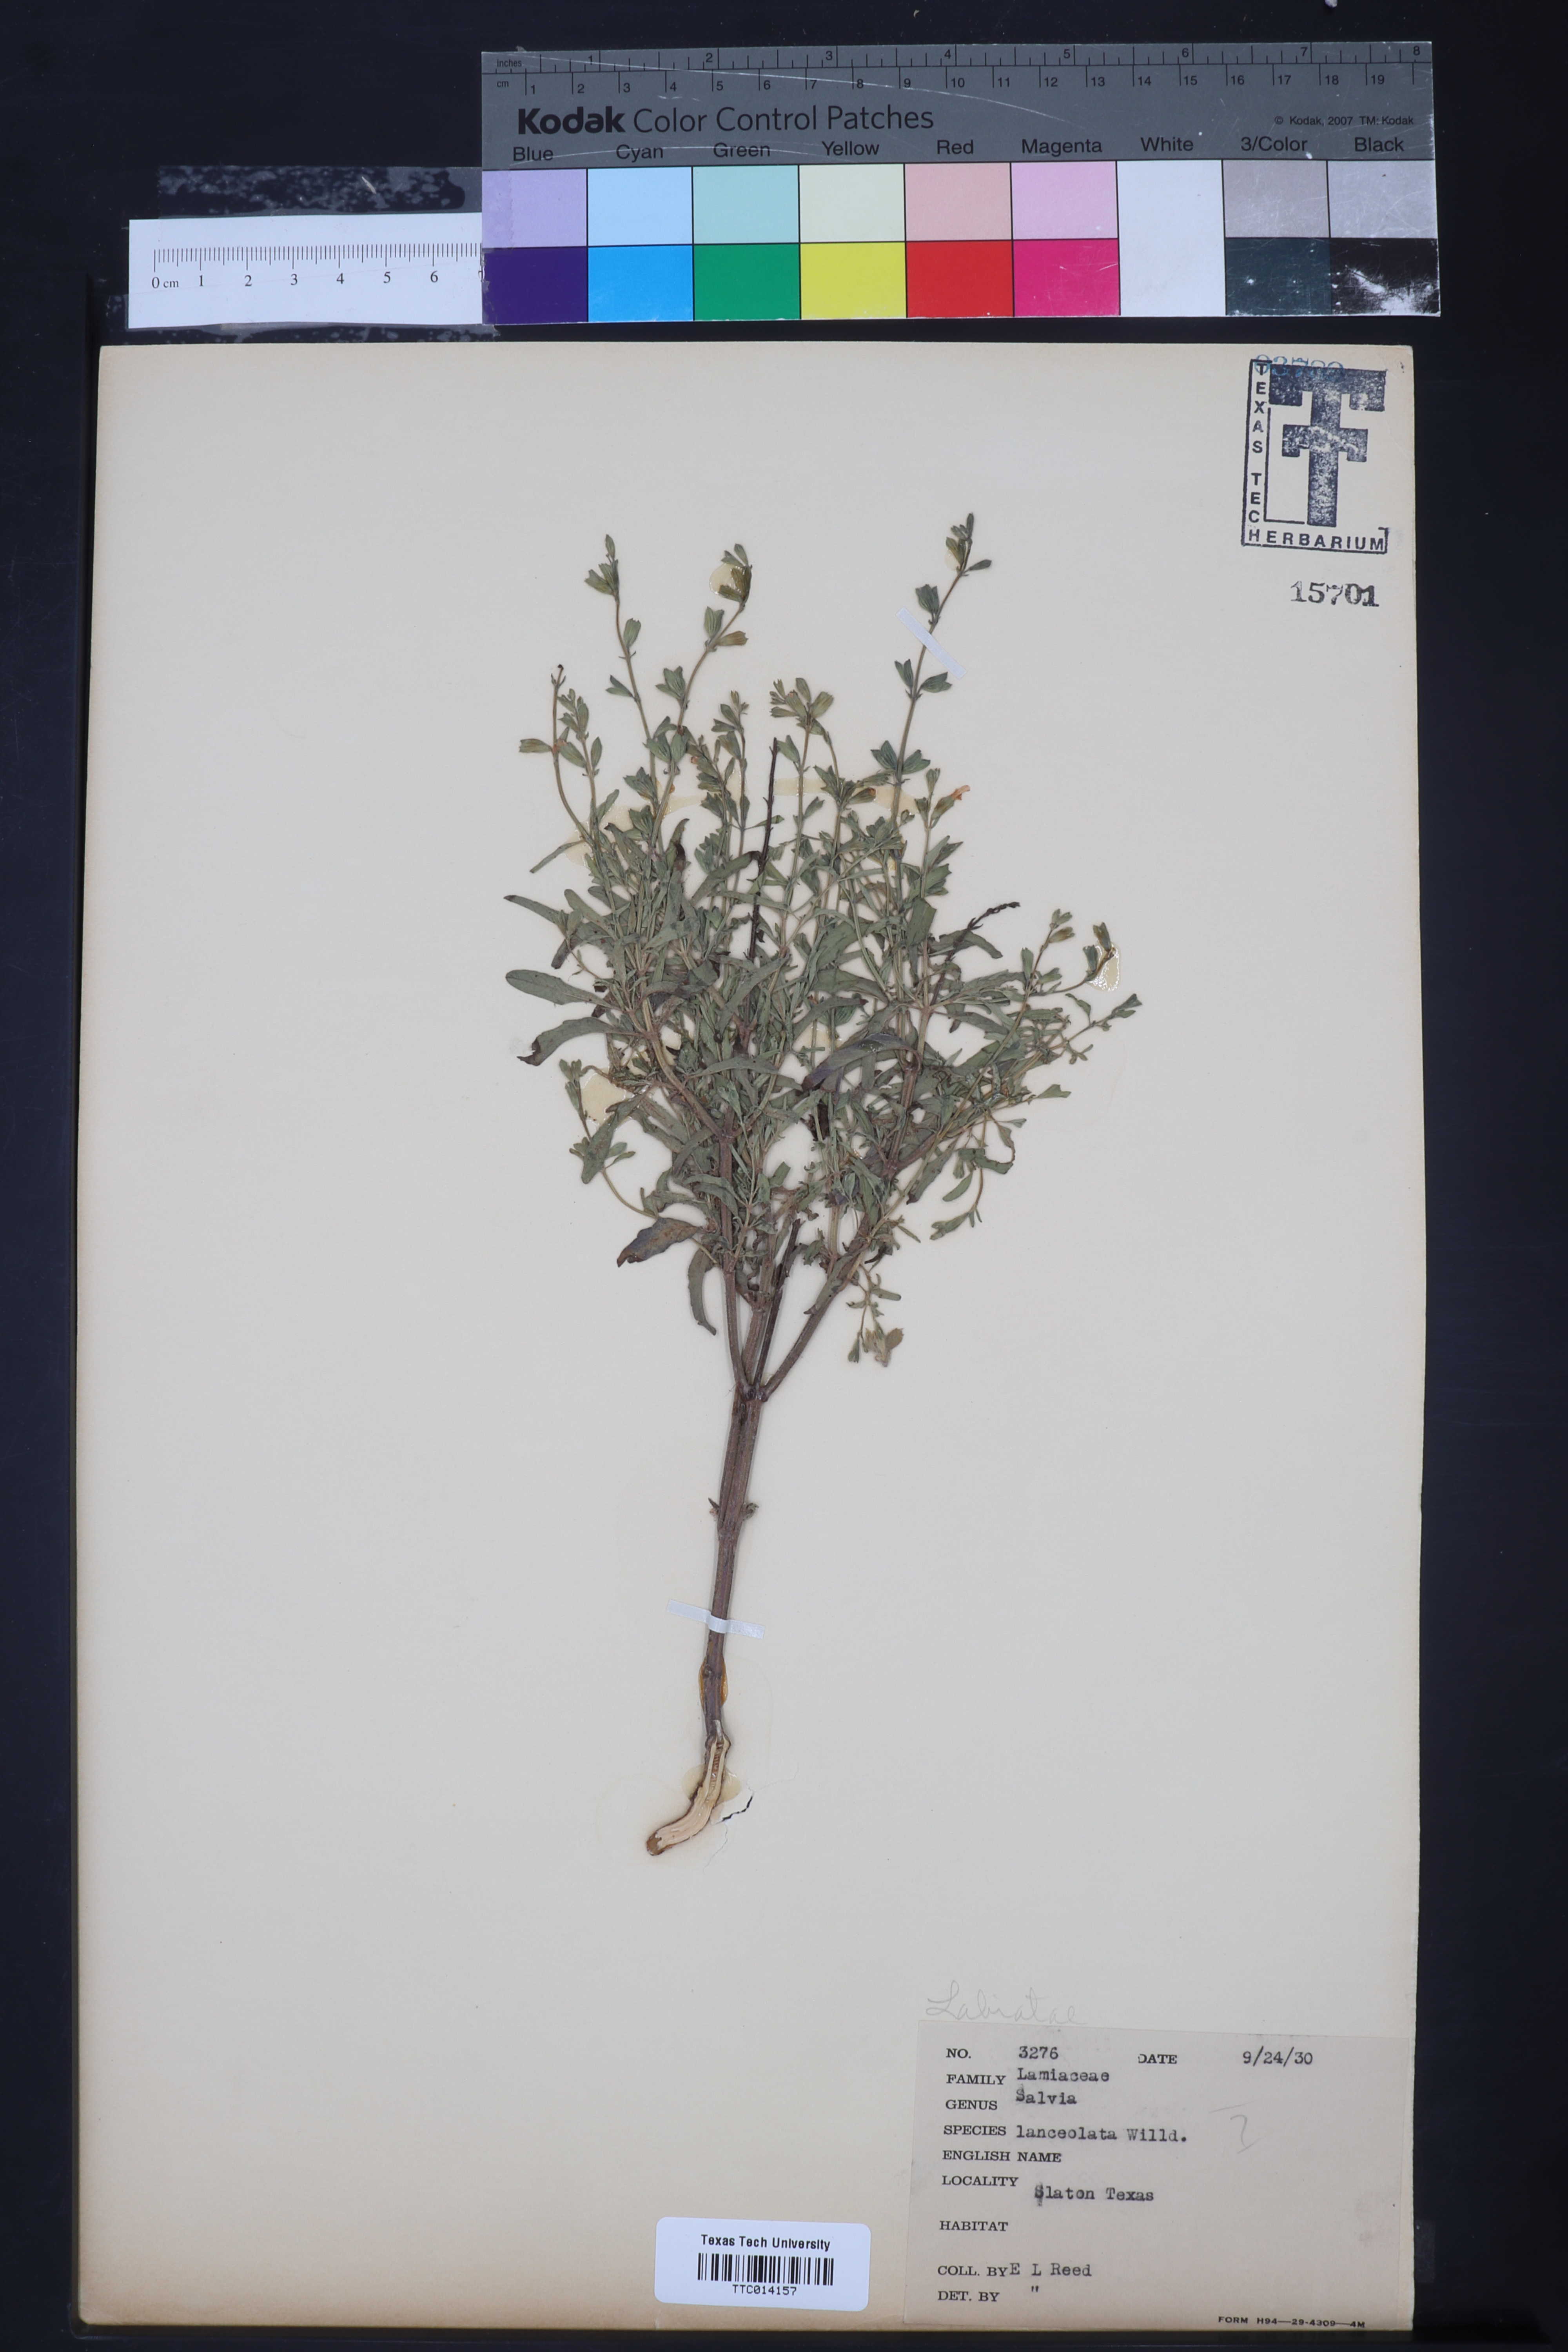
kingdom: Plantae
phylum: Tracheophyta
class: Magnoliopsida
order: Lamiales
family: Lamiaceae
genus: Salvia
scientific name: Salvia uliginosa
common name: Bog sage
